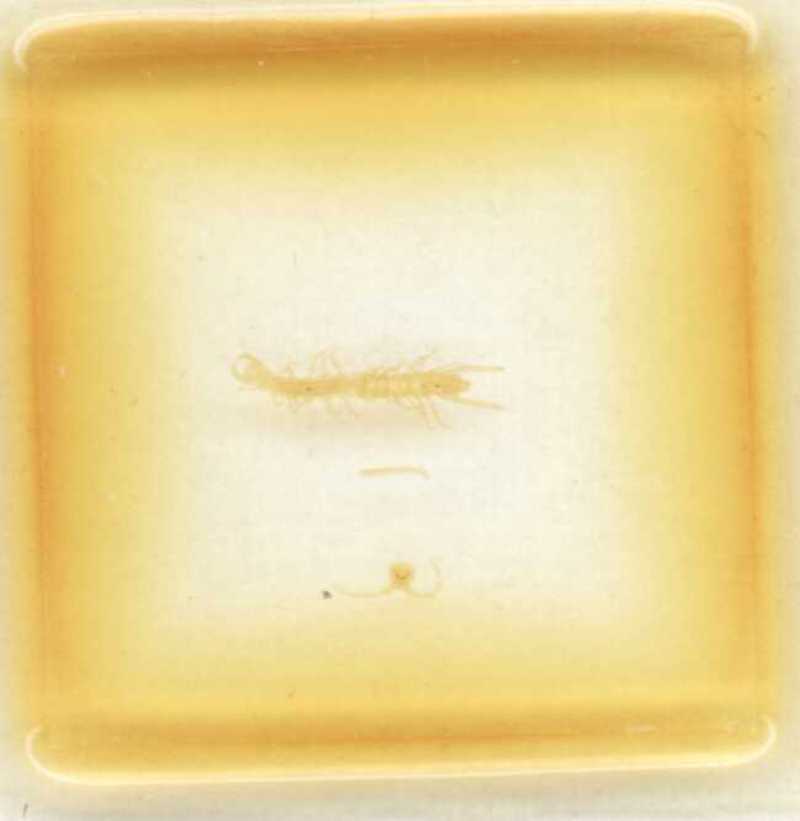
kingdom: Animalia
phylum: Arthropoda
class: Chilopoda
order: Lithobiomorpha
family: Lithobiidae
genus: Lithobius
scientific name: Lithobius catascaphius
